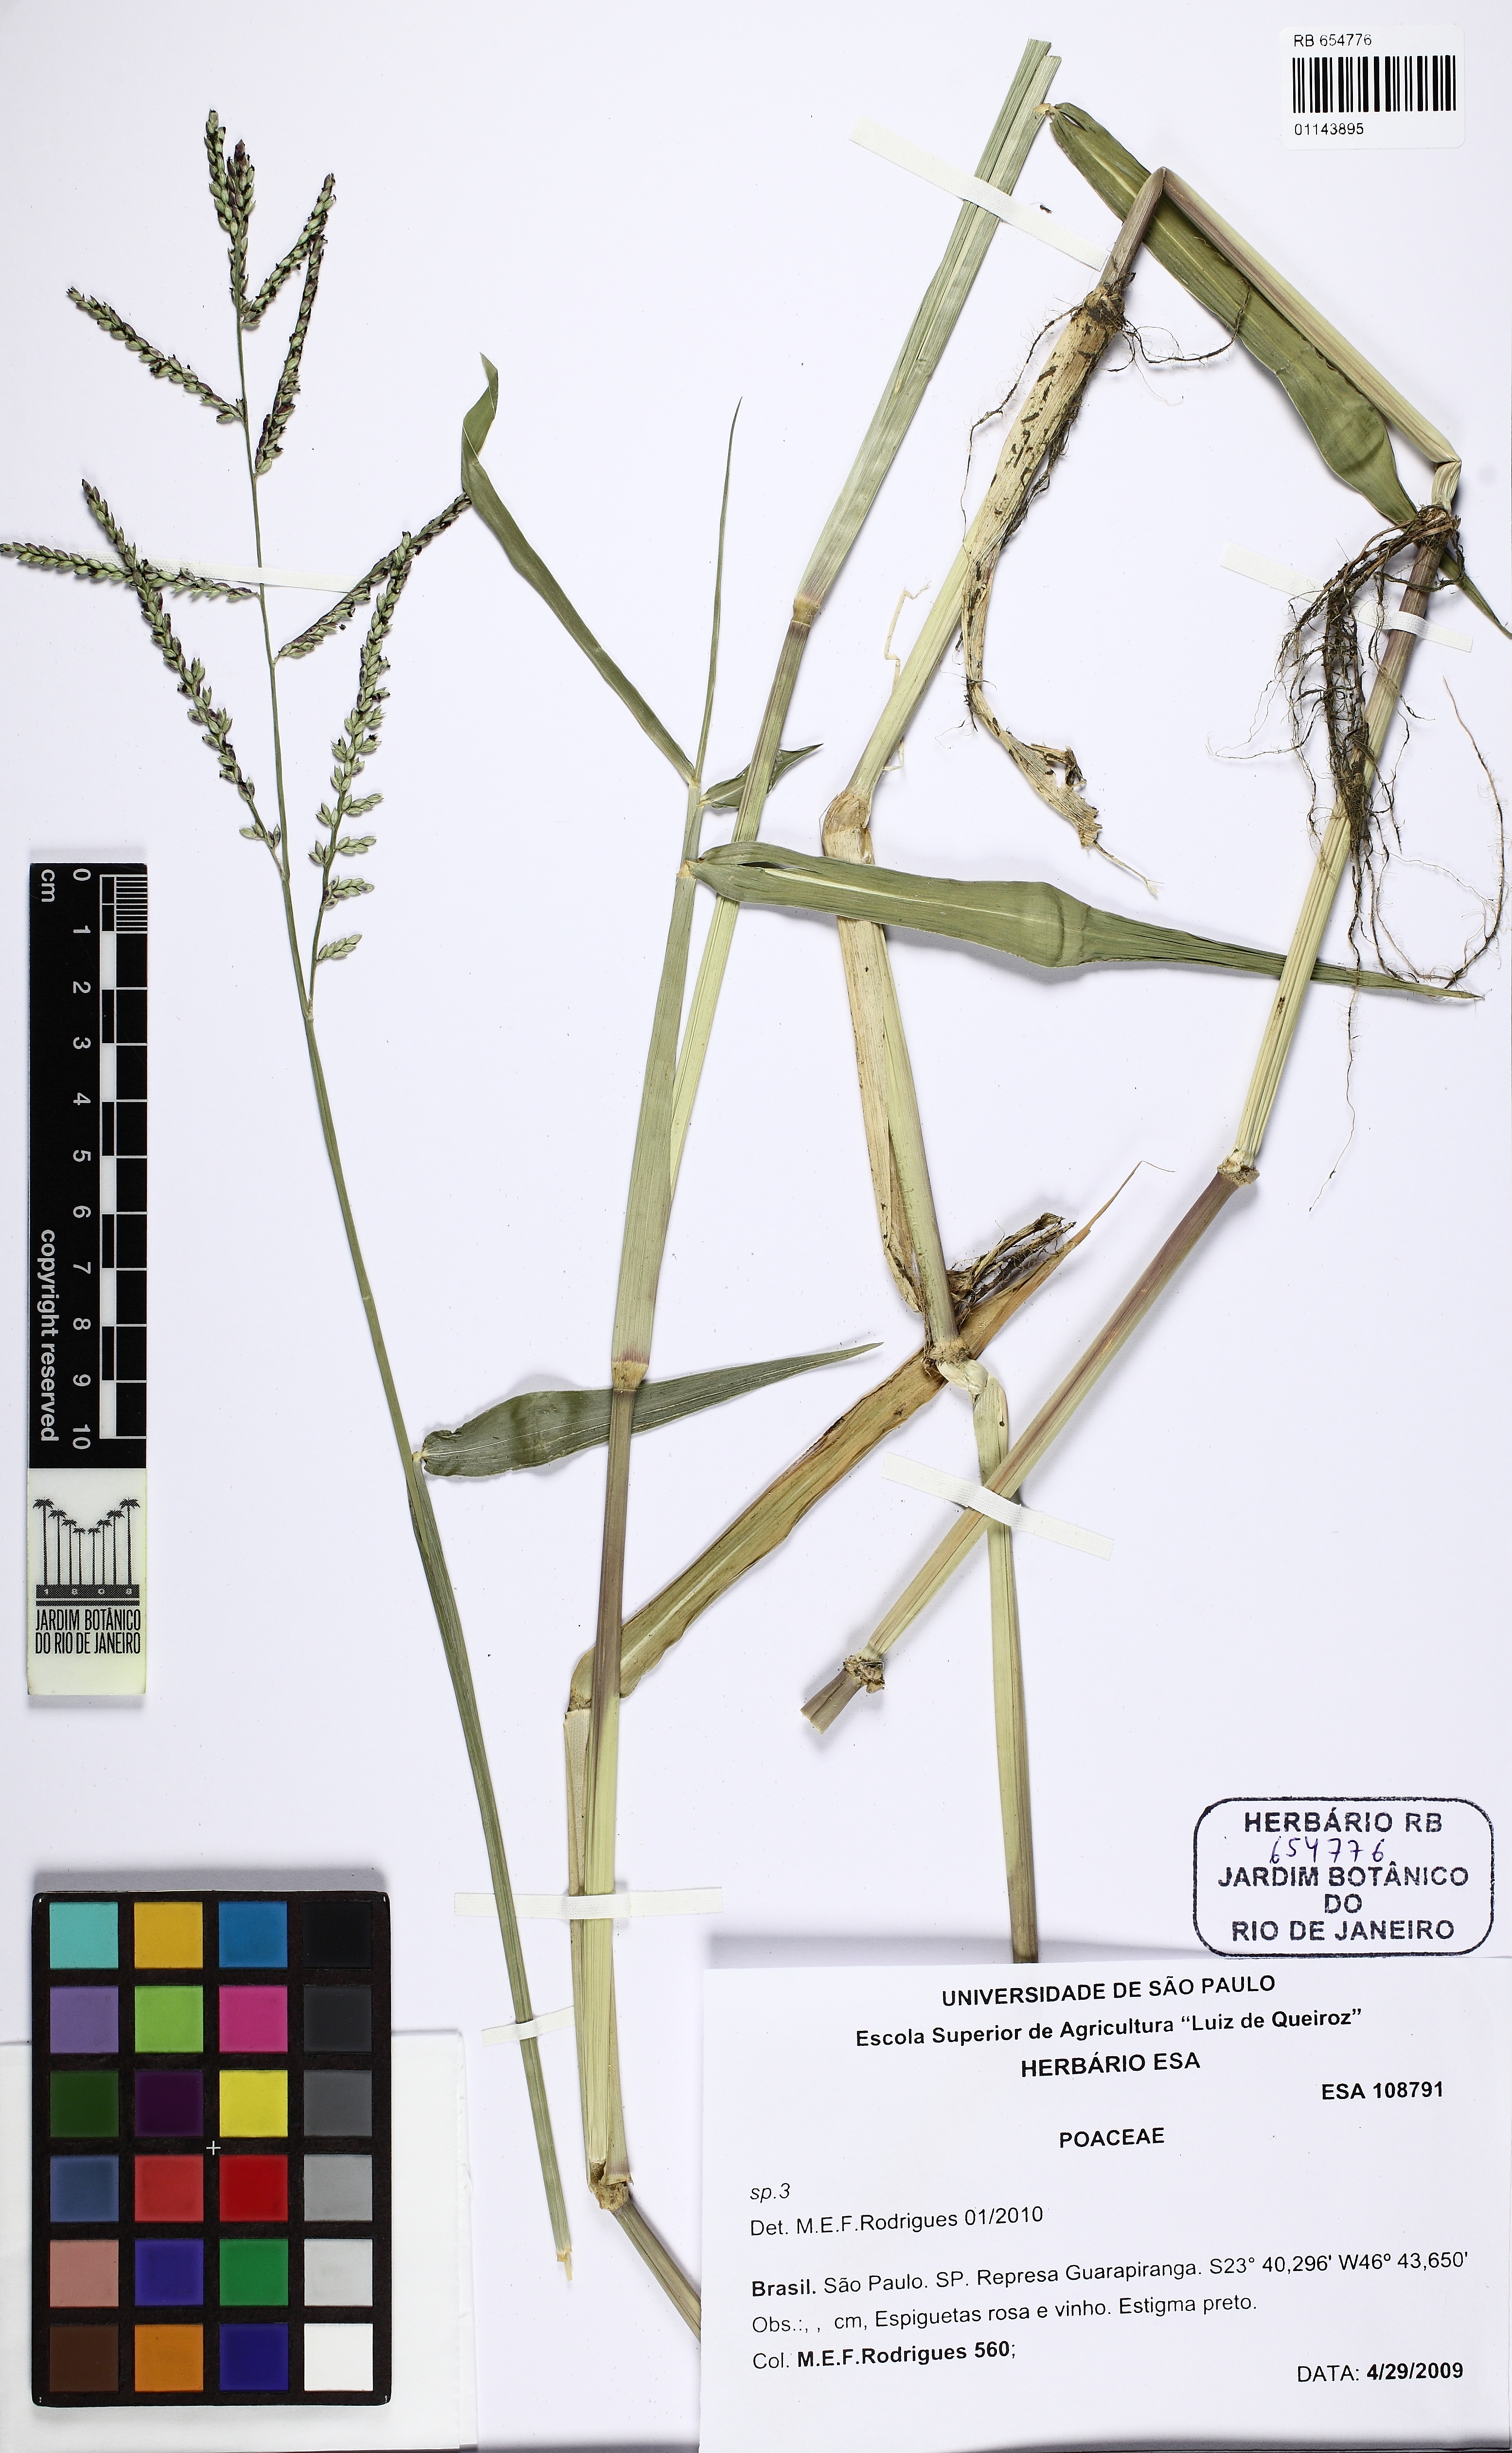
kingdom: Plantae
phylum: Tracheophyta
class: Liliopsida
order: Poales
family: Poaceae
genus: Urochloa
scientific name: Urochloa
